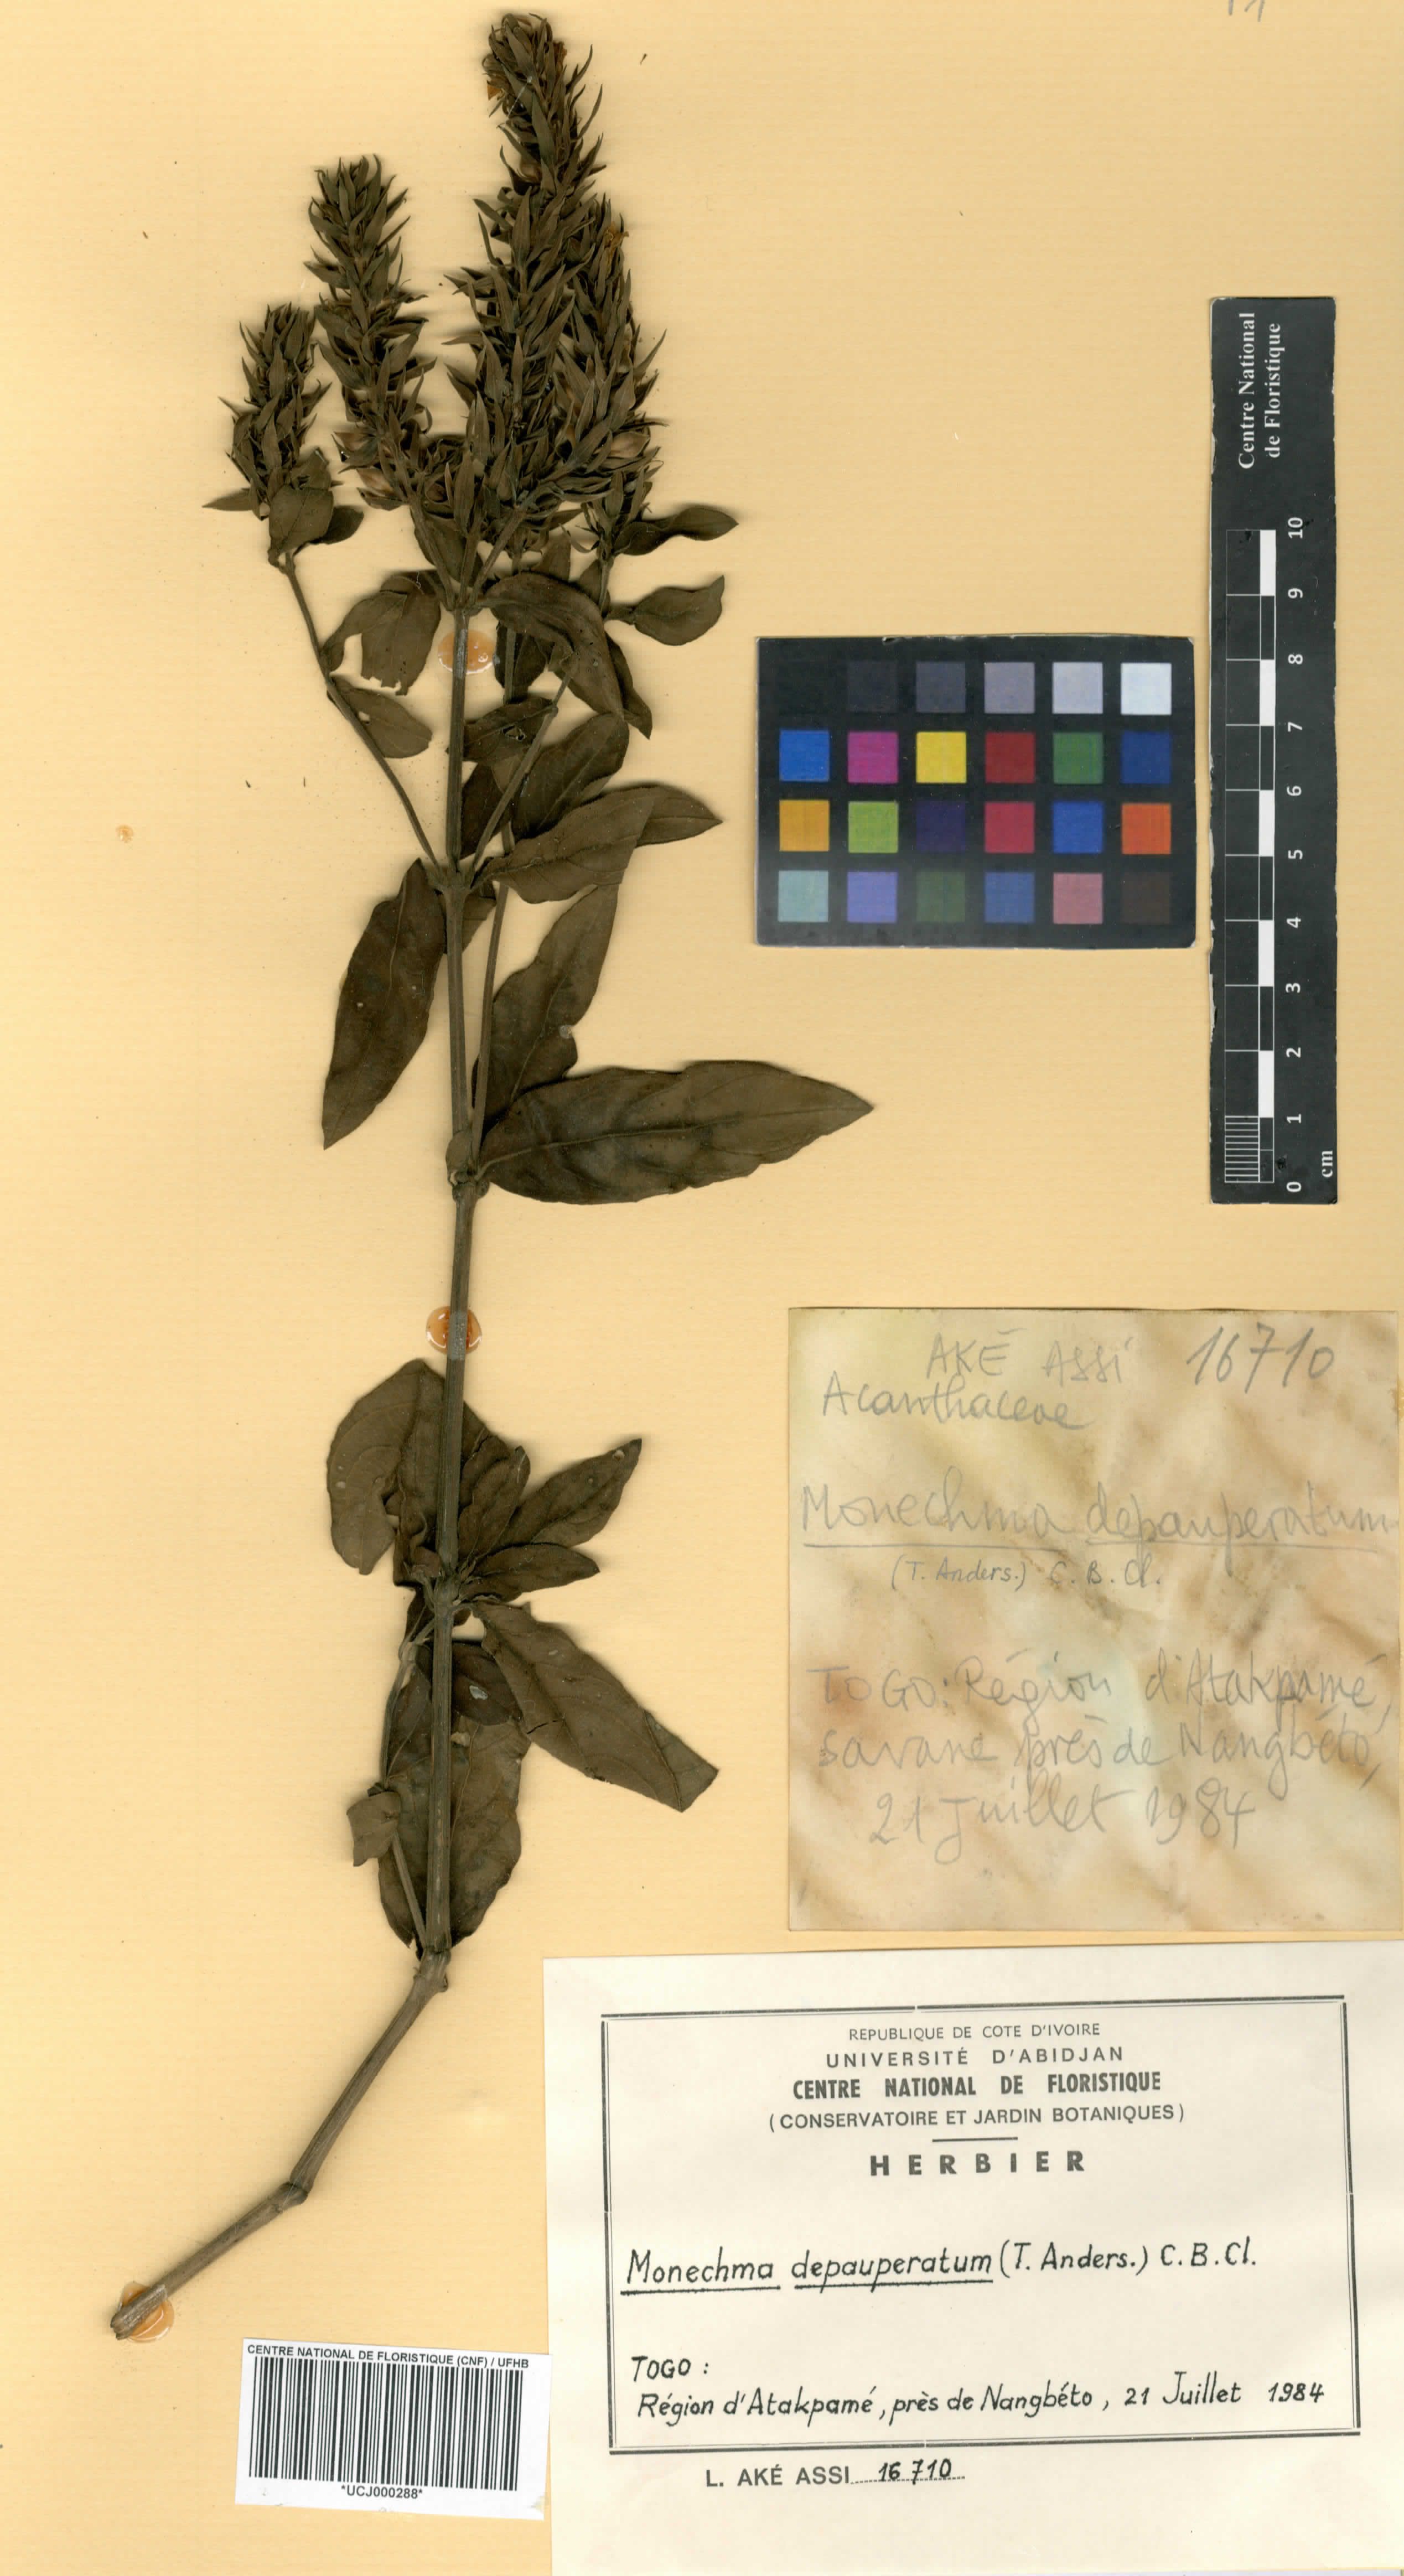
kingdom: Plantae
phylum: Tracheophyta
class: Magnoliopsida
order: Lamiales
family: Acanthaceae
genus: Monechma
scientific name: Monechma depauperatum
